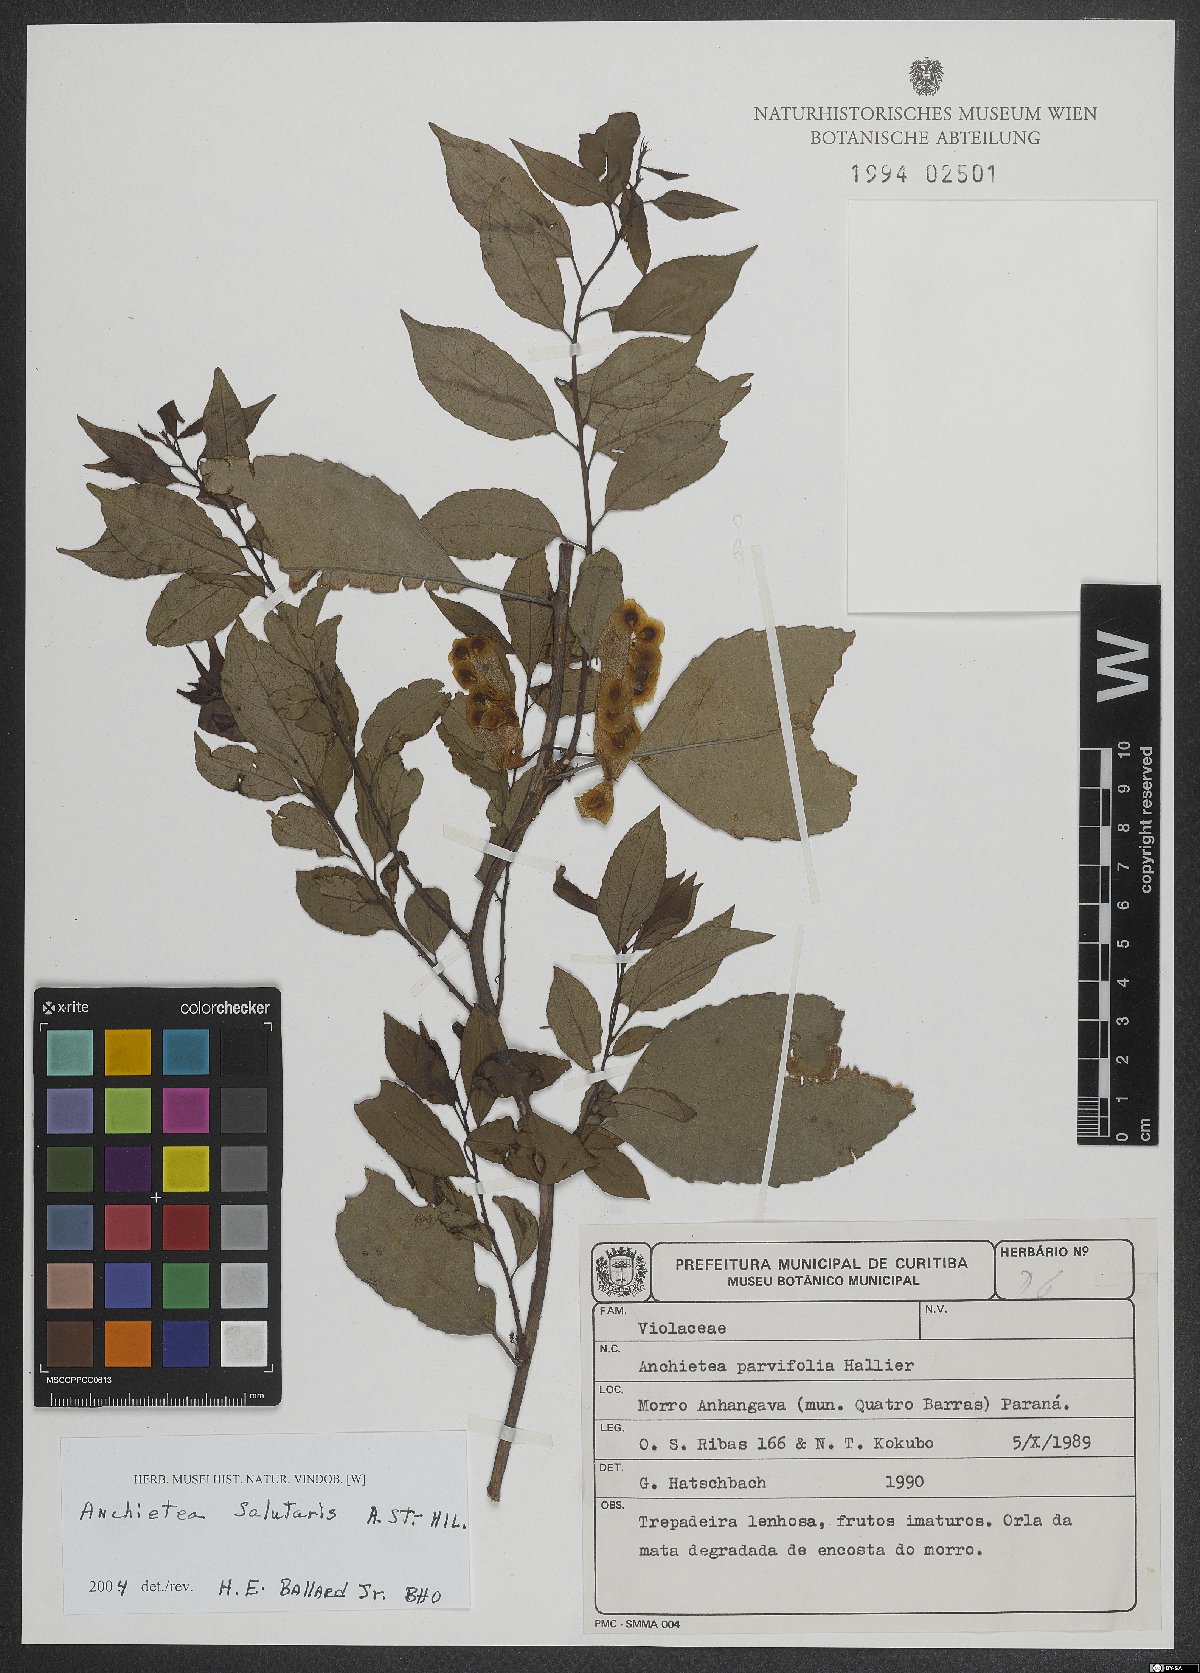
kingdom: Plantae
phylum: Tracheophyta
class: Magnoliopsida
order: Malpighiales
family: Violaceae
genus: Anchietea
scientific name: Anchietea pyrifolia
